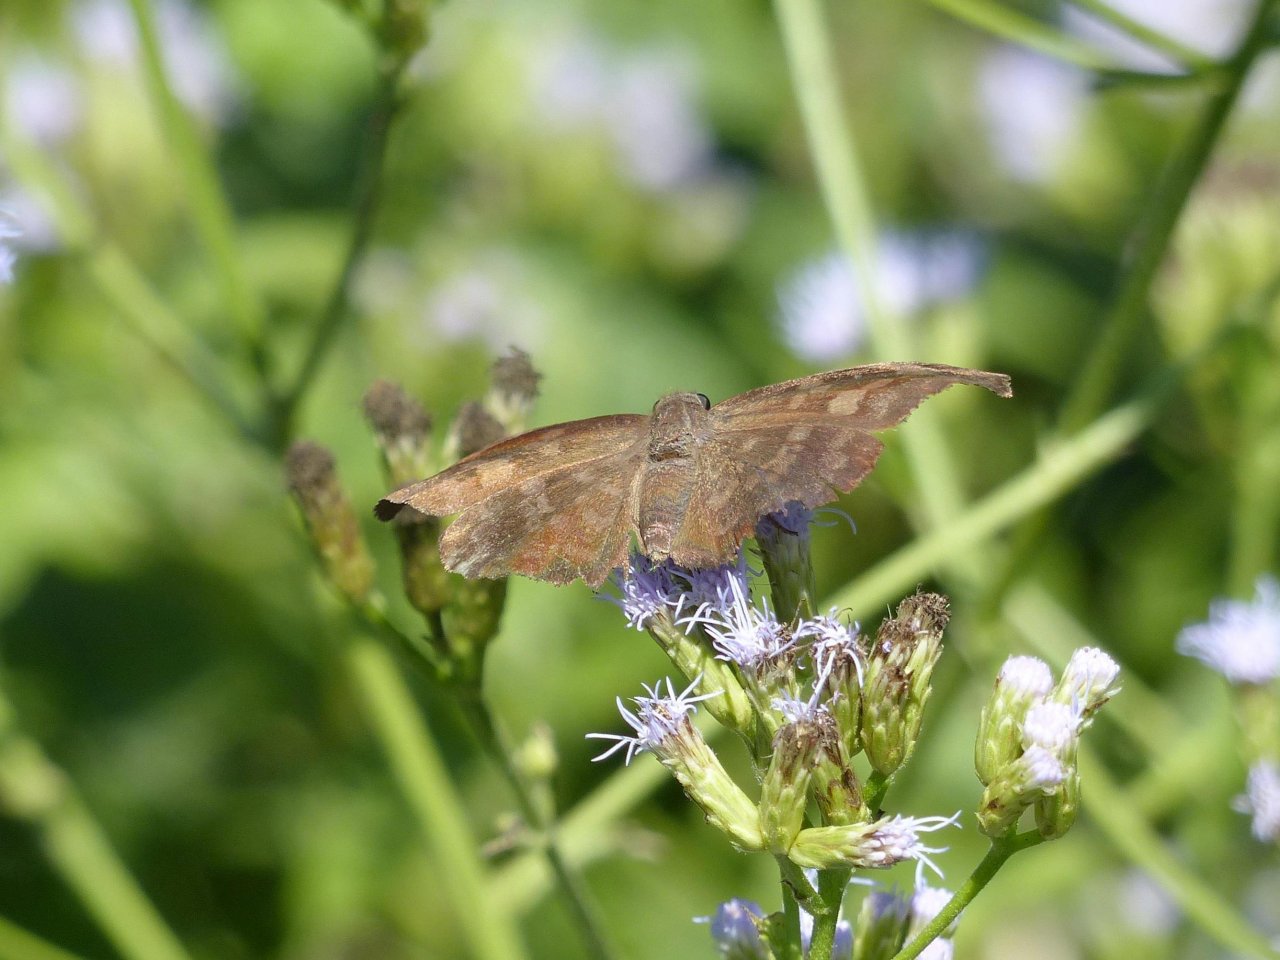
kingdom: Animalia
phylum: Arthropoda
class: Insecta
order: Lepidoptera
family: Hesperiidae
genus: Achlyodes
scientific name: Achlyodes thraso
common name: Sickle-winged Skipper
